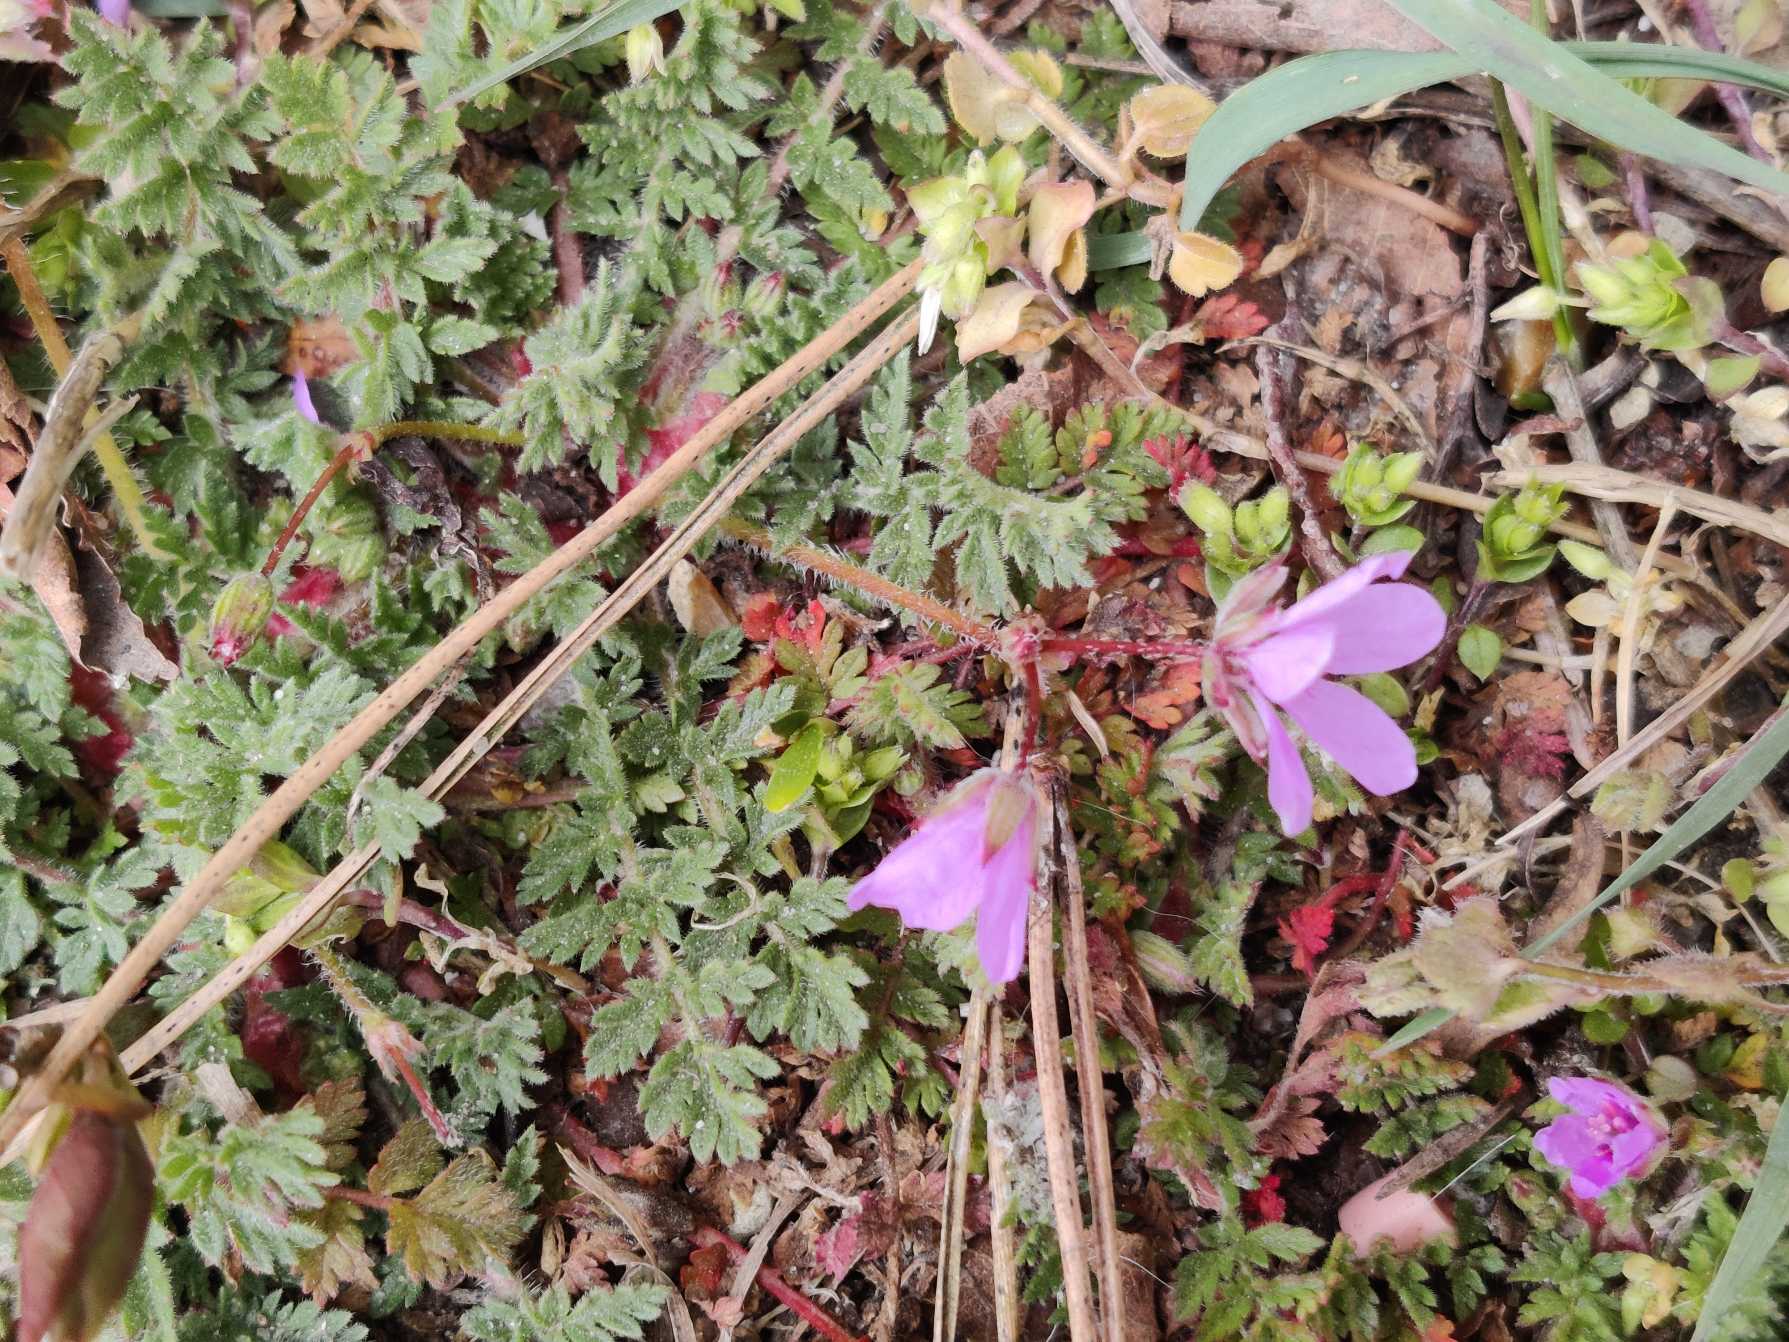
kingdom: Plantae
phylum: Tracheophyta
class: Magnoliopsida
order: Geraniales
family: Geraniaceae
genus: Erodium
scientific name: Erodium cicutarium
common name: Hejrenæb
